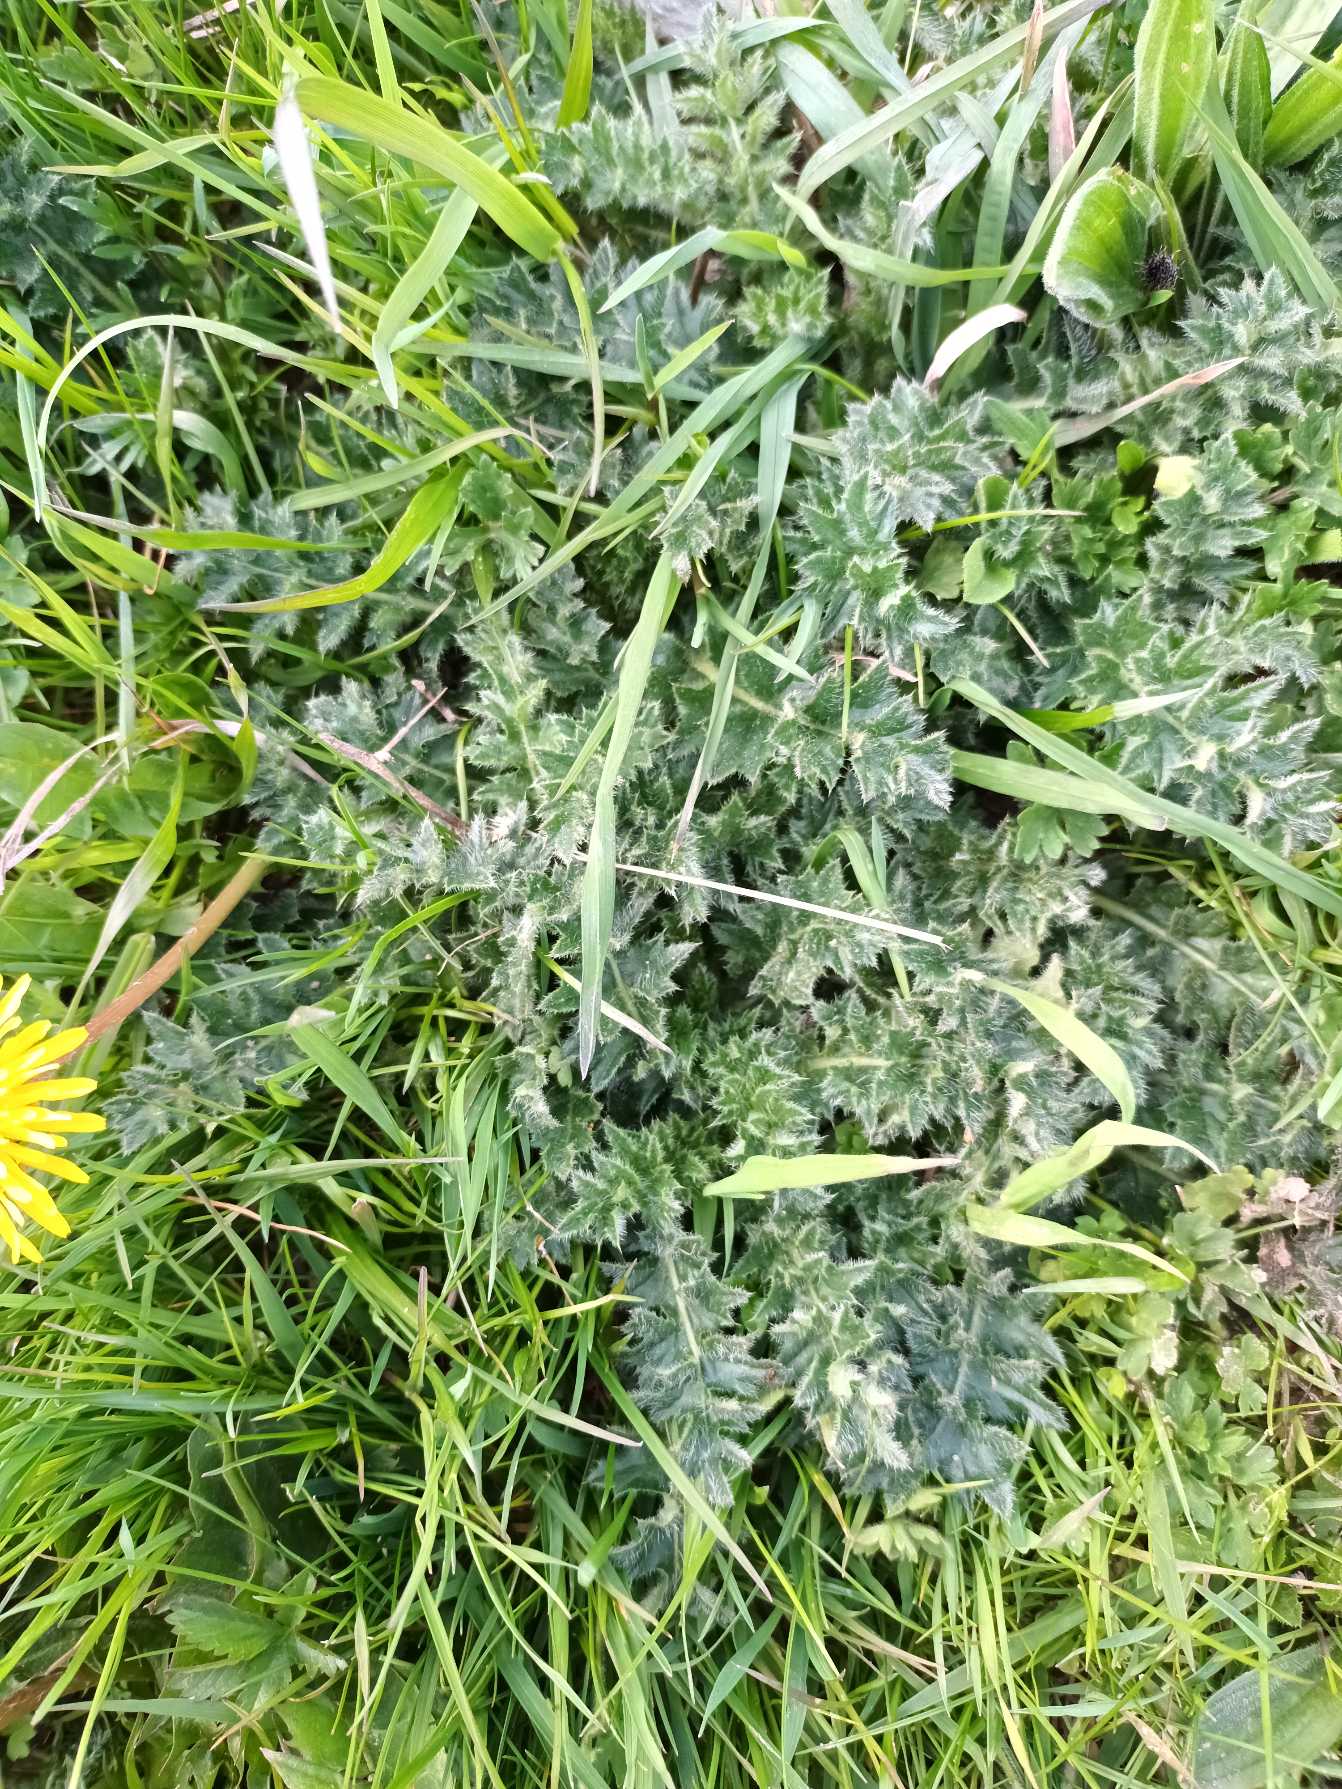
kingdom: Plantae
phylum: Tracheophyta
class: Magnoliopsida
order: Asterales
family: Asteraceae
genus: Cirsium
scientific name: Cirsium acaule
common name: Lav tidsel
